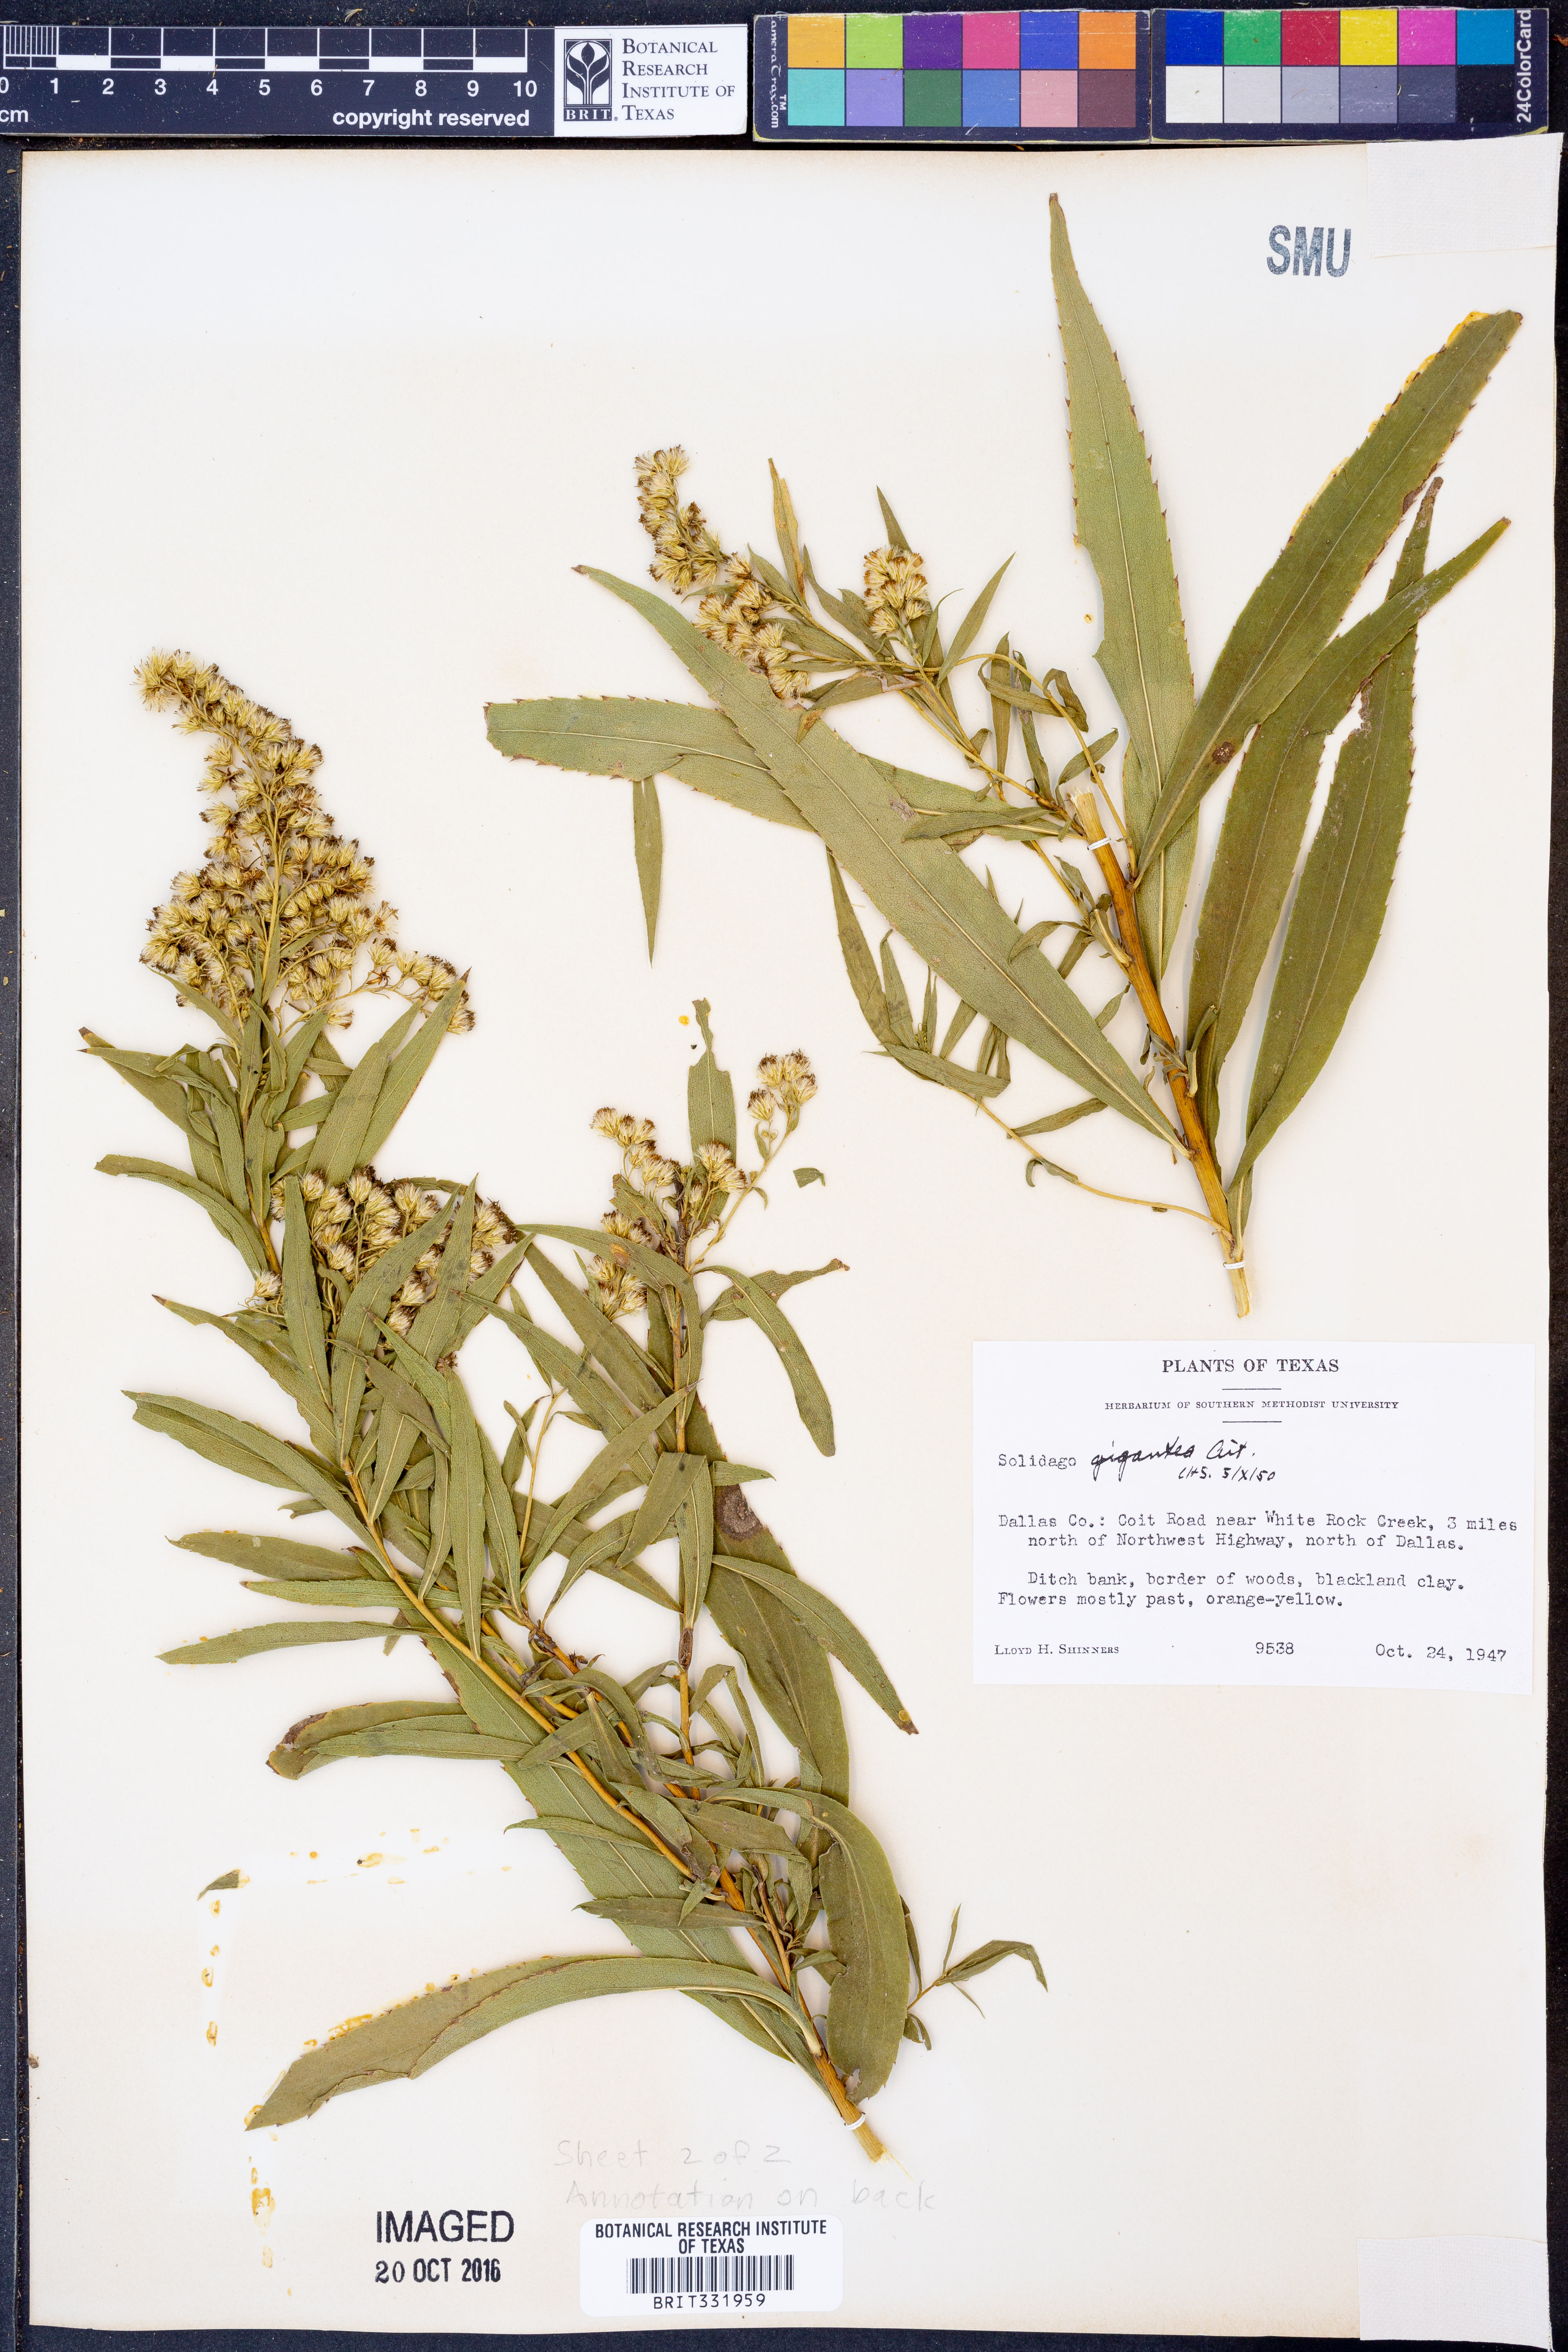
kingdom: Plantae
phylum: Tracheophyta
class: Magnoliopsida
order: Asterales
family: Asteraceae
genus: Solidago
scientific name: Solidago gigantea
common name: Giant goldenrod
